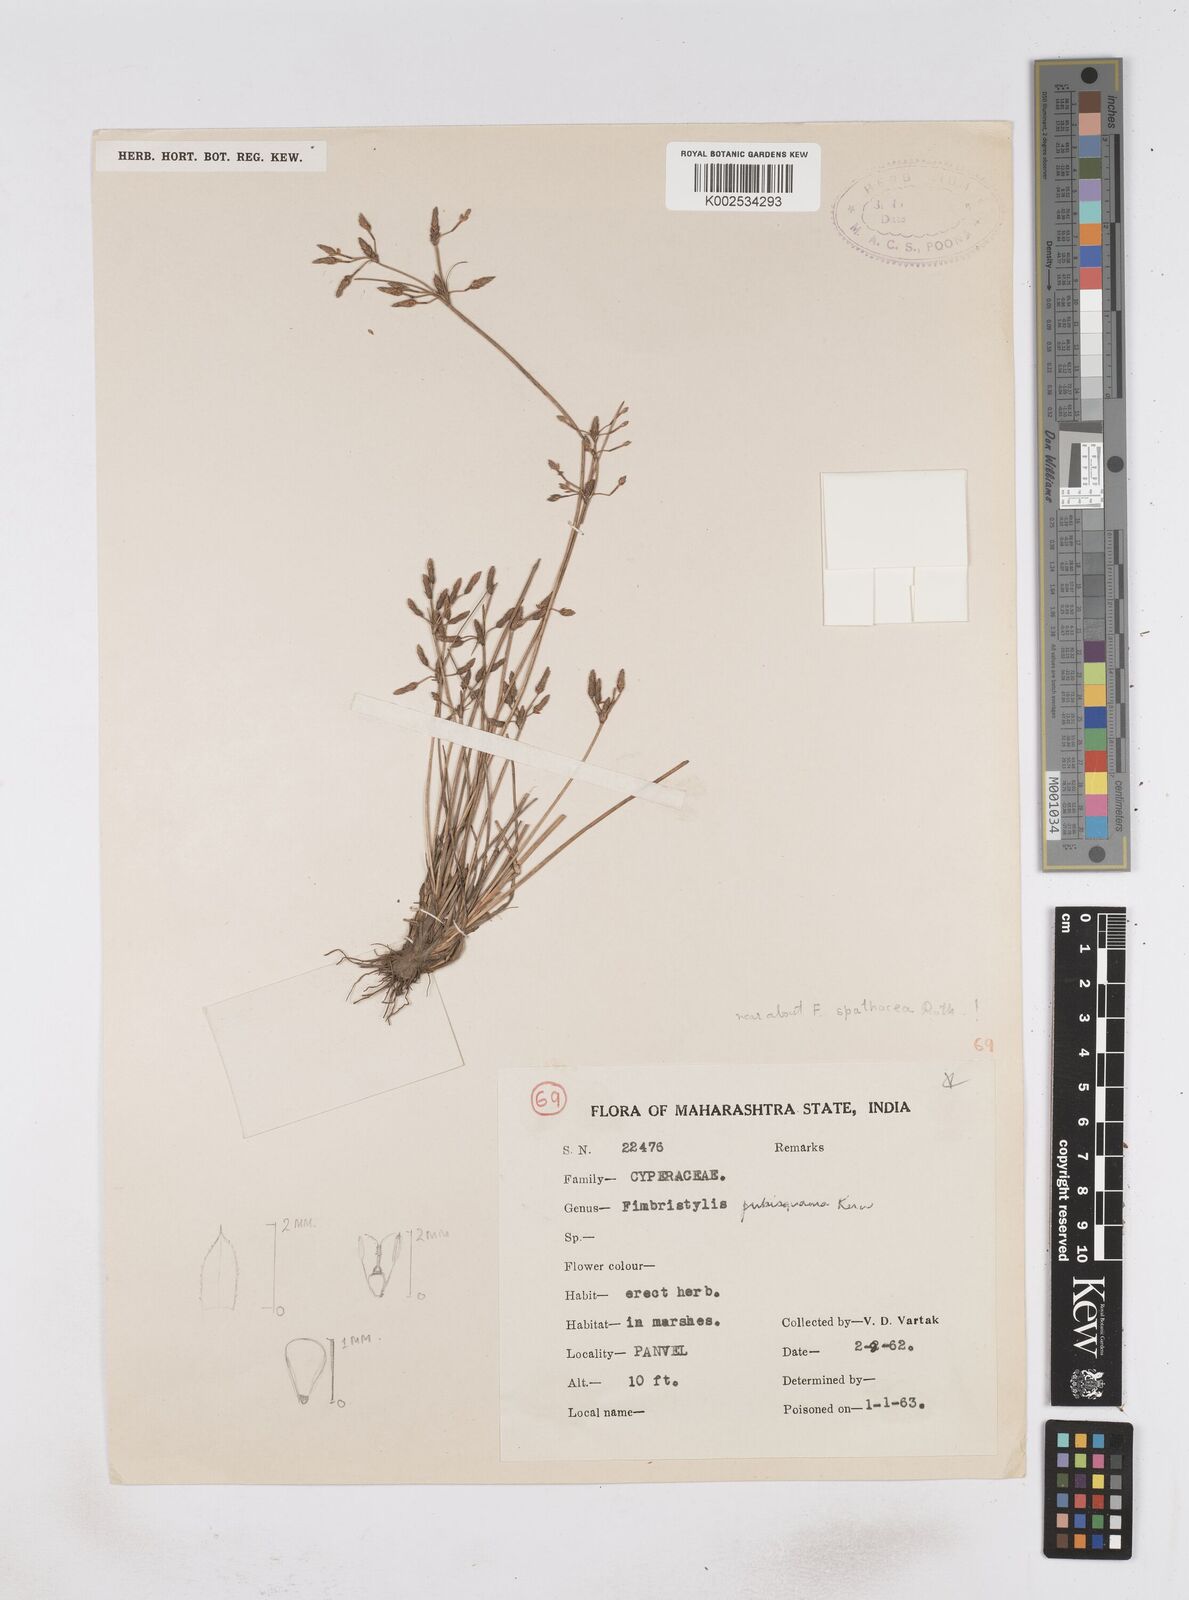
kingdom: Plantae
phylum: Tracheophyta
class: Liliopsida
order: Poales
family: Cyperaceae
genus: Fimbristylis
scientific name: Fimbristylis pubisquama
